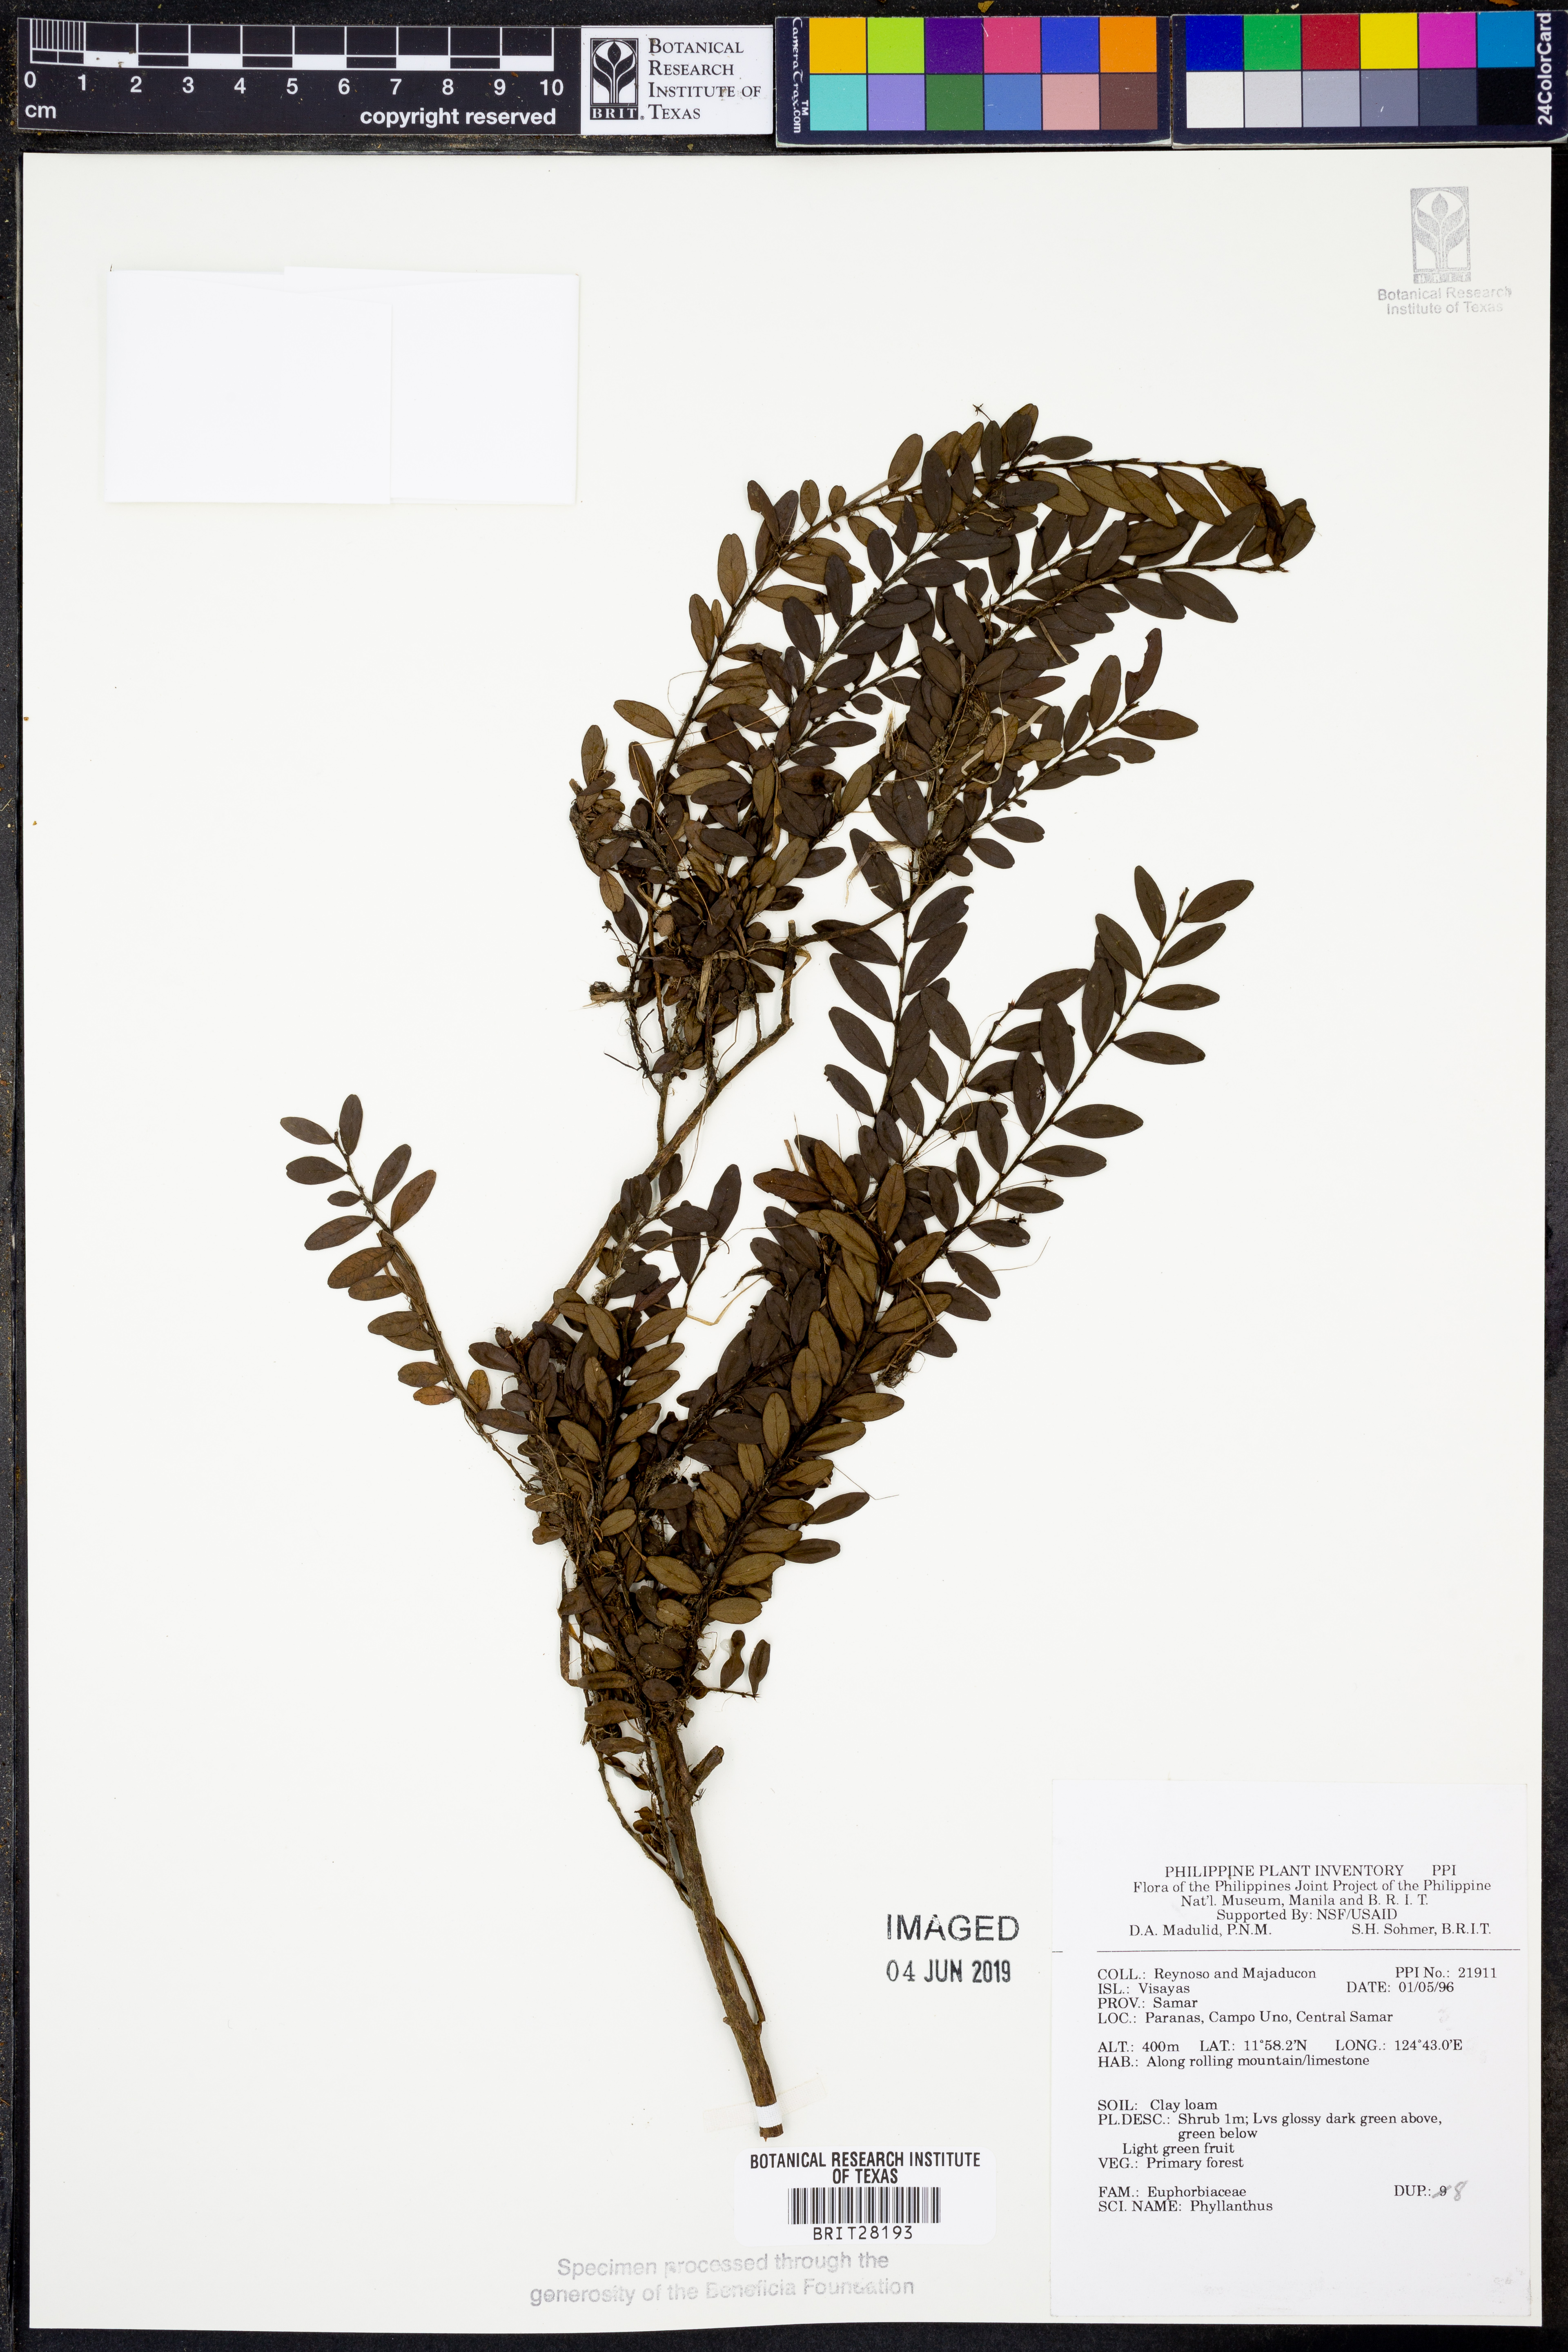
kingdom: Plantae
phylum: Tracheophyta
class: Magnoliopsida
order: Malpighiales
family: Phyllanthaceae
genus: Phyllanthus
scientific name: Phyllanthus
